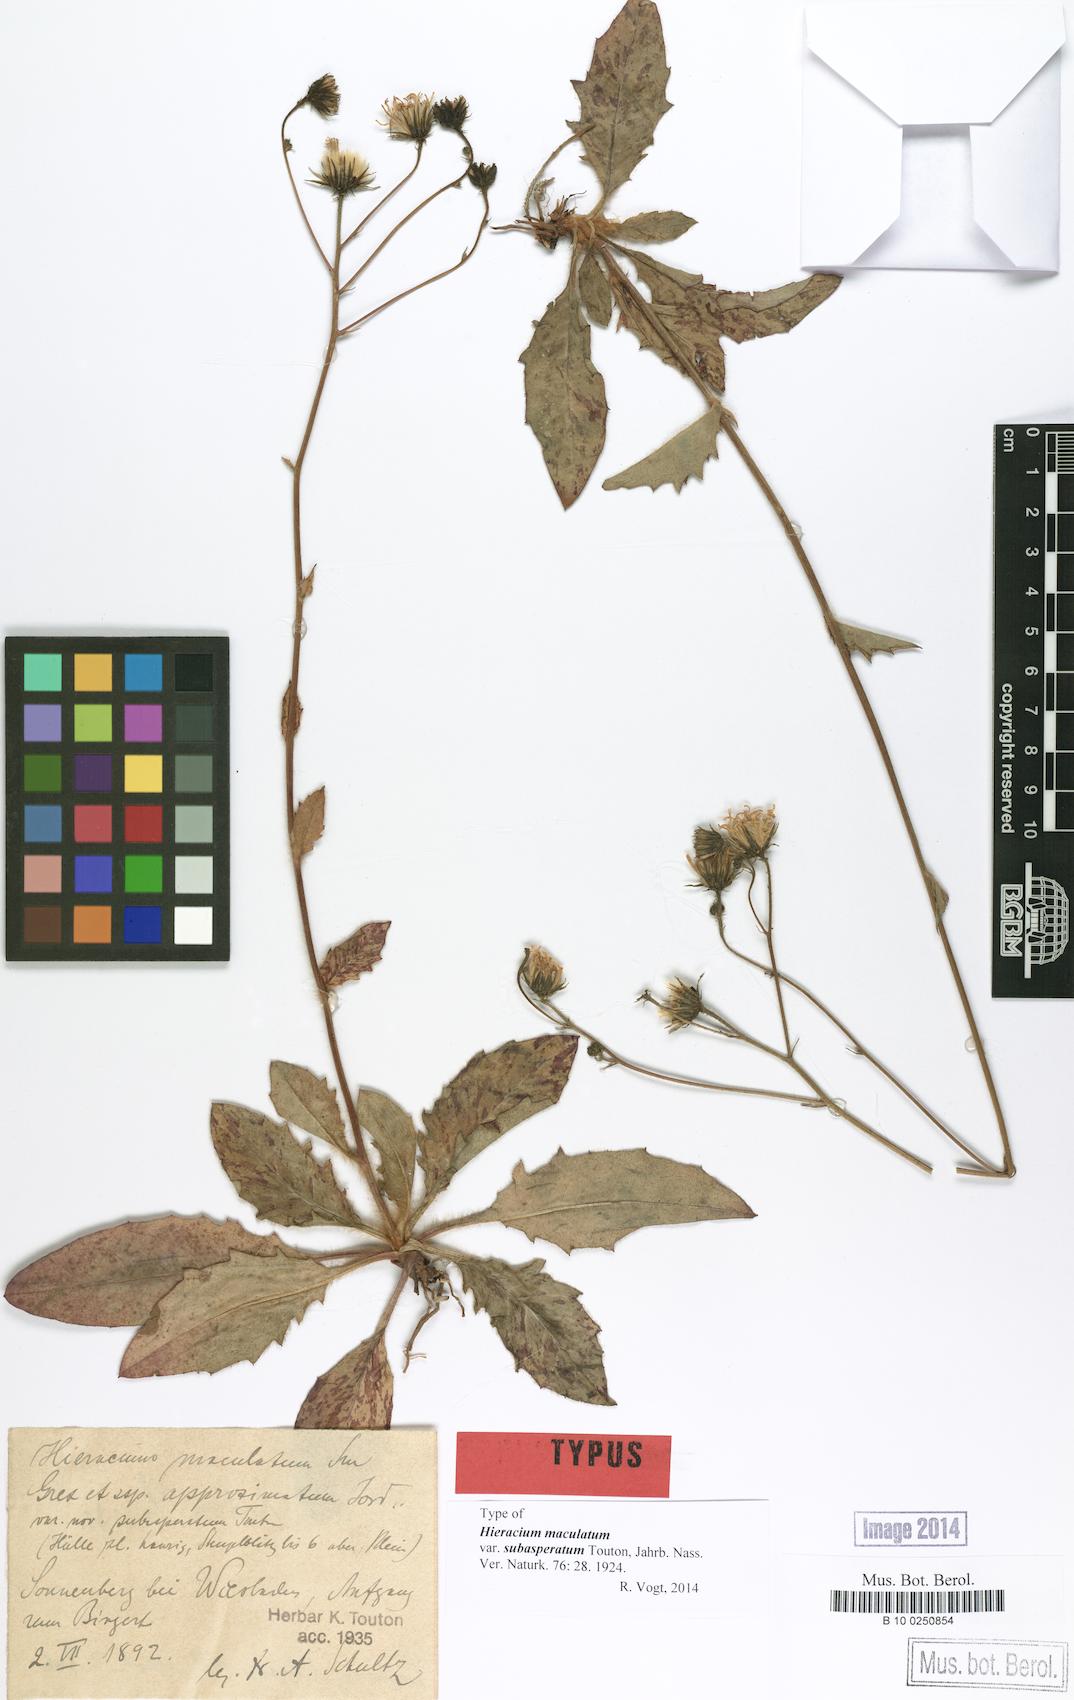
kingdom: Plantae
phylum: Tracheophyta
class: Magnoliopsida
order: Asterales
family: Asteraceae
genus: Hieracium
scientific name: Hieracium maculatum
